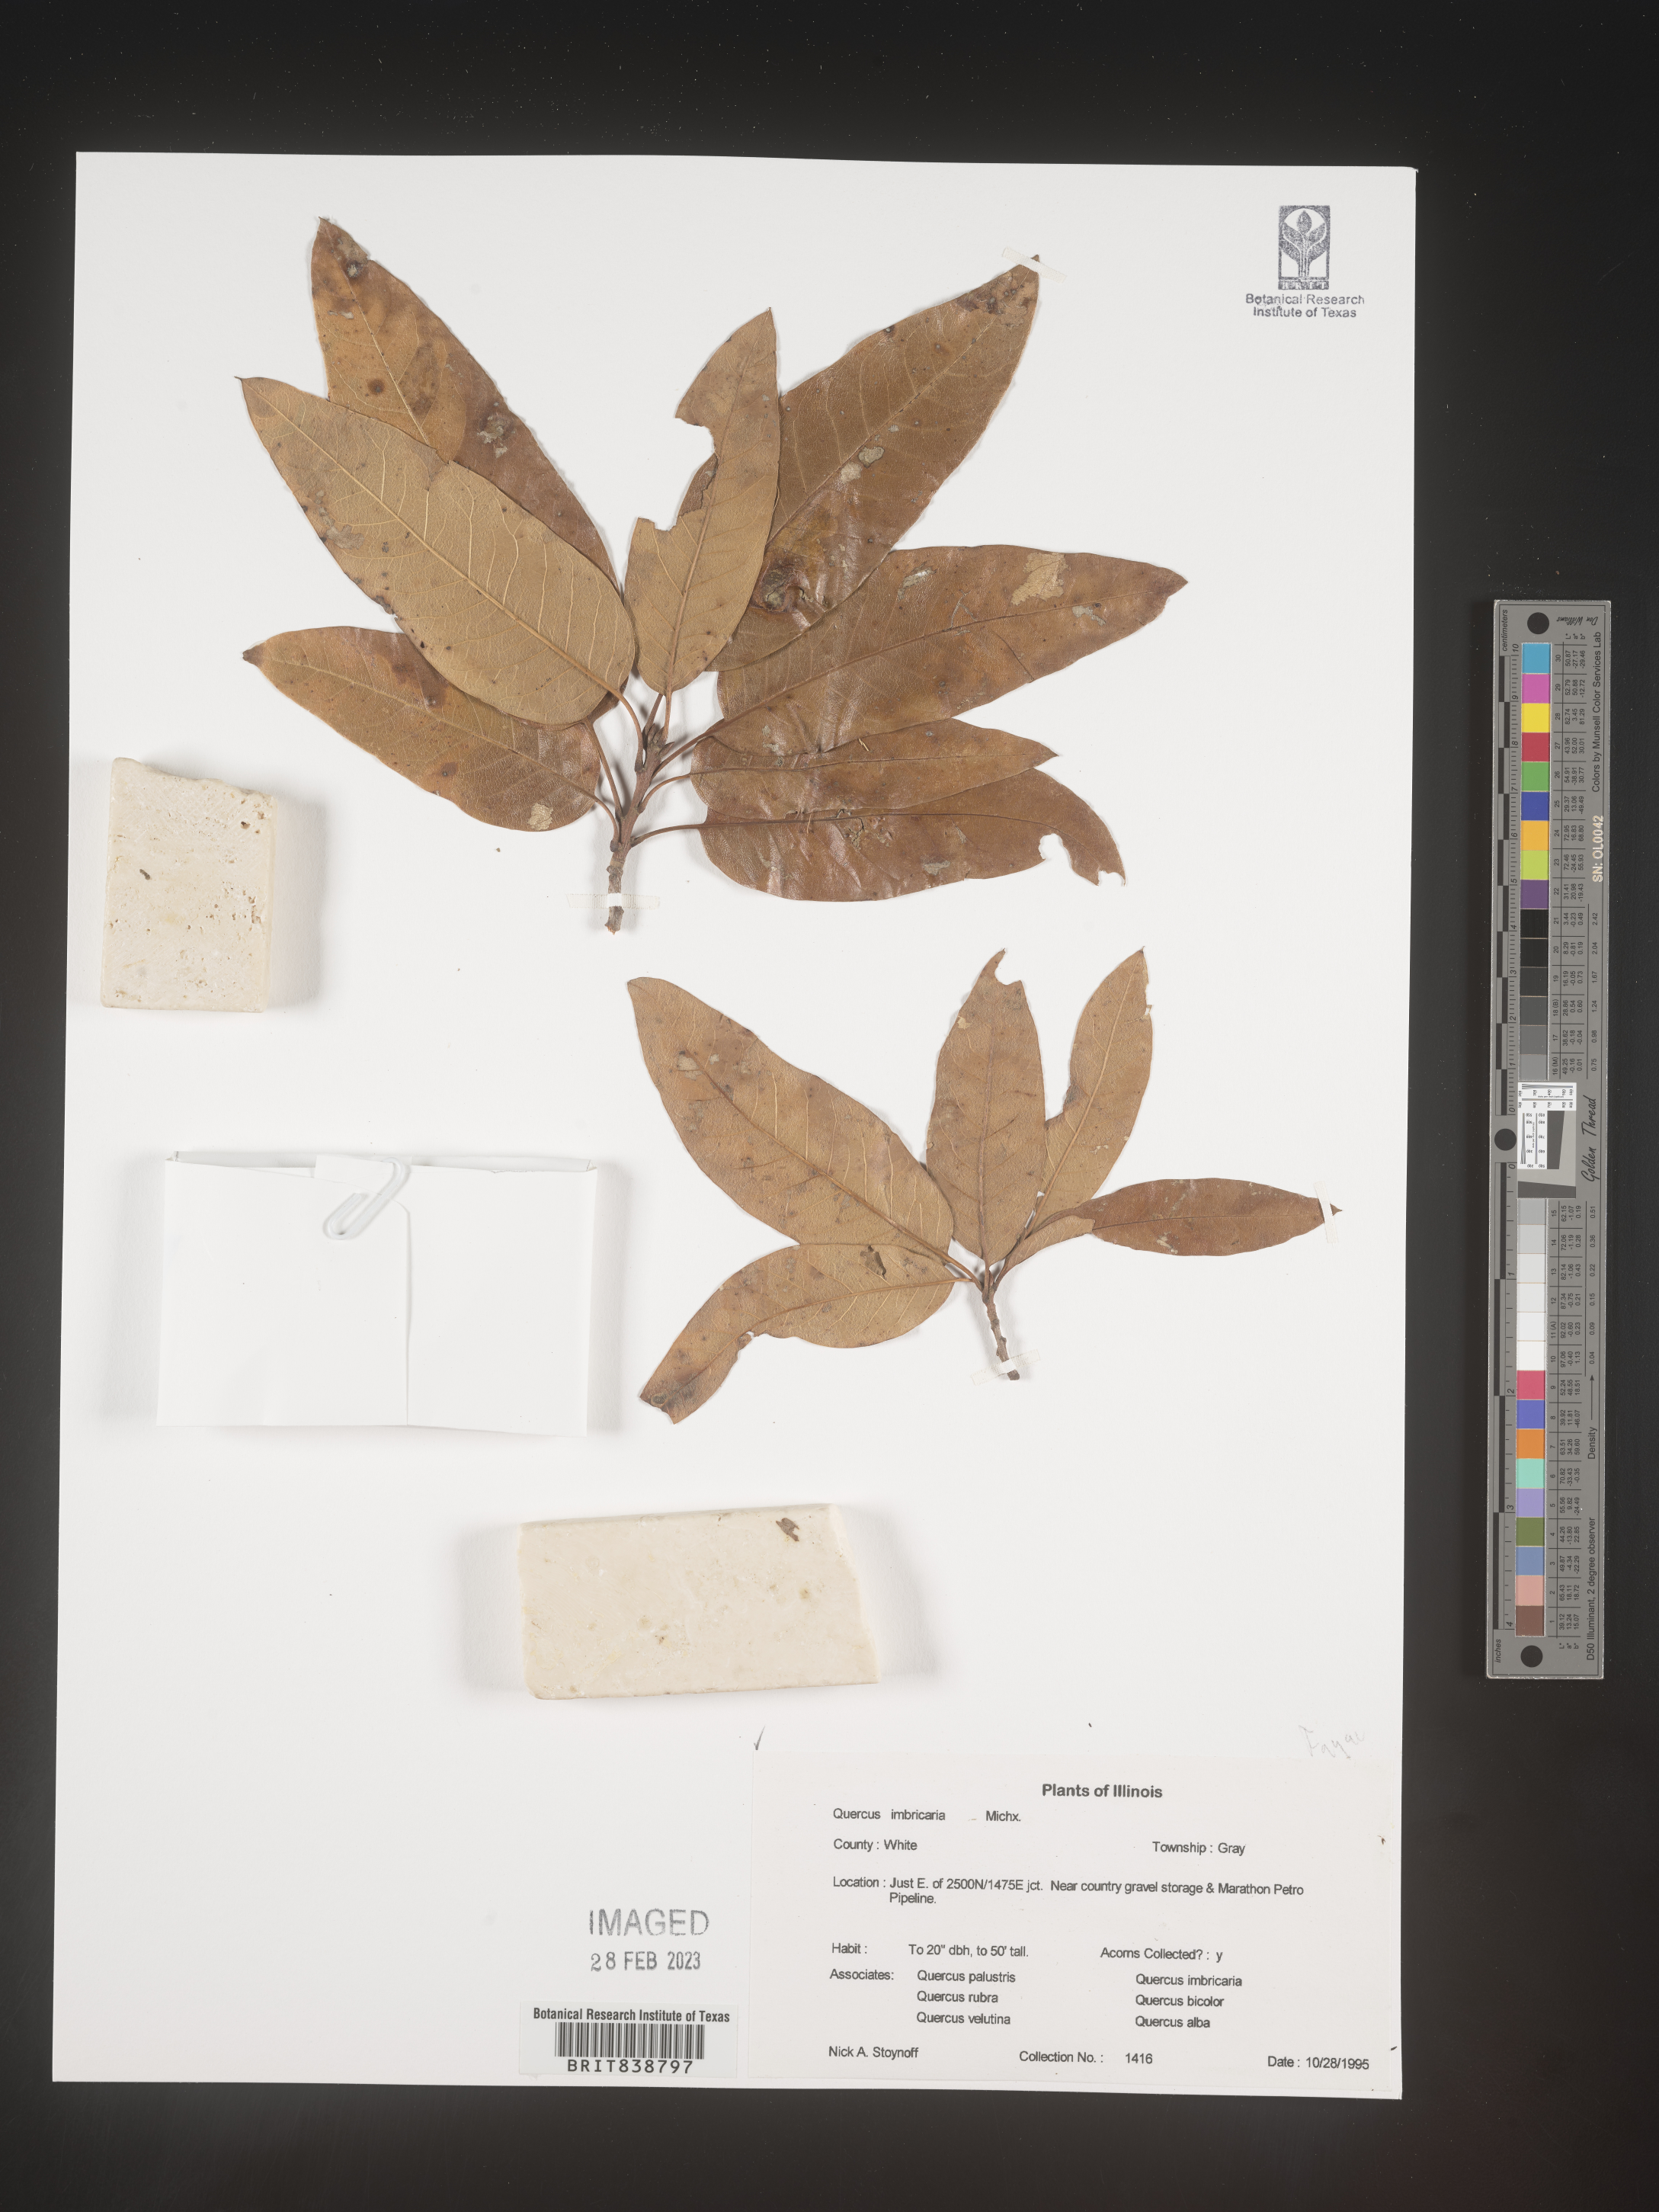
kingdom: Plantae
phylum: Tracheophyta
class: Magnoliopsida
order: Fagales
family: Fagaceae
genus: Quercus
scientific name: Quercus imbricaria
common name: Shingle oak
